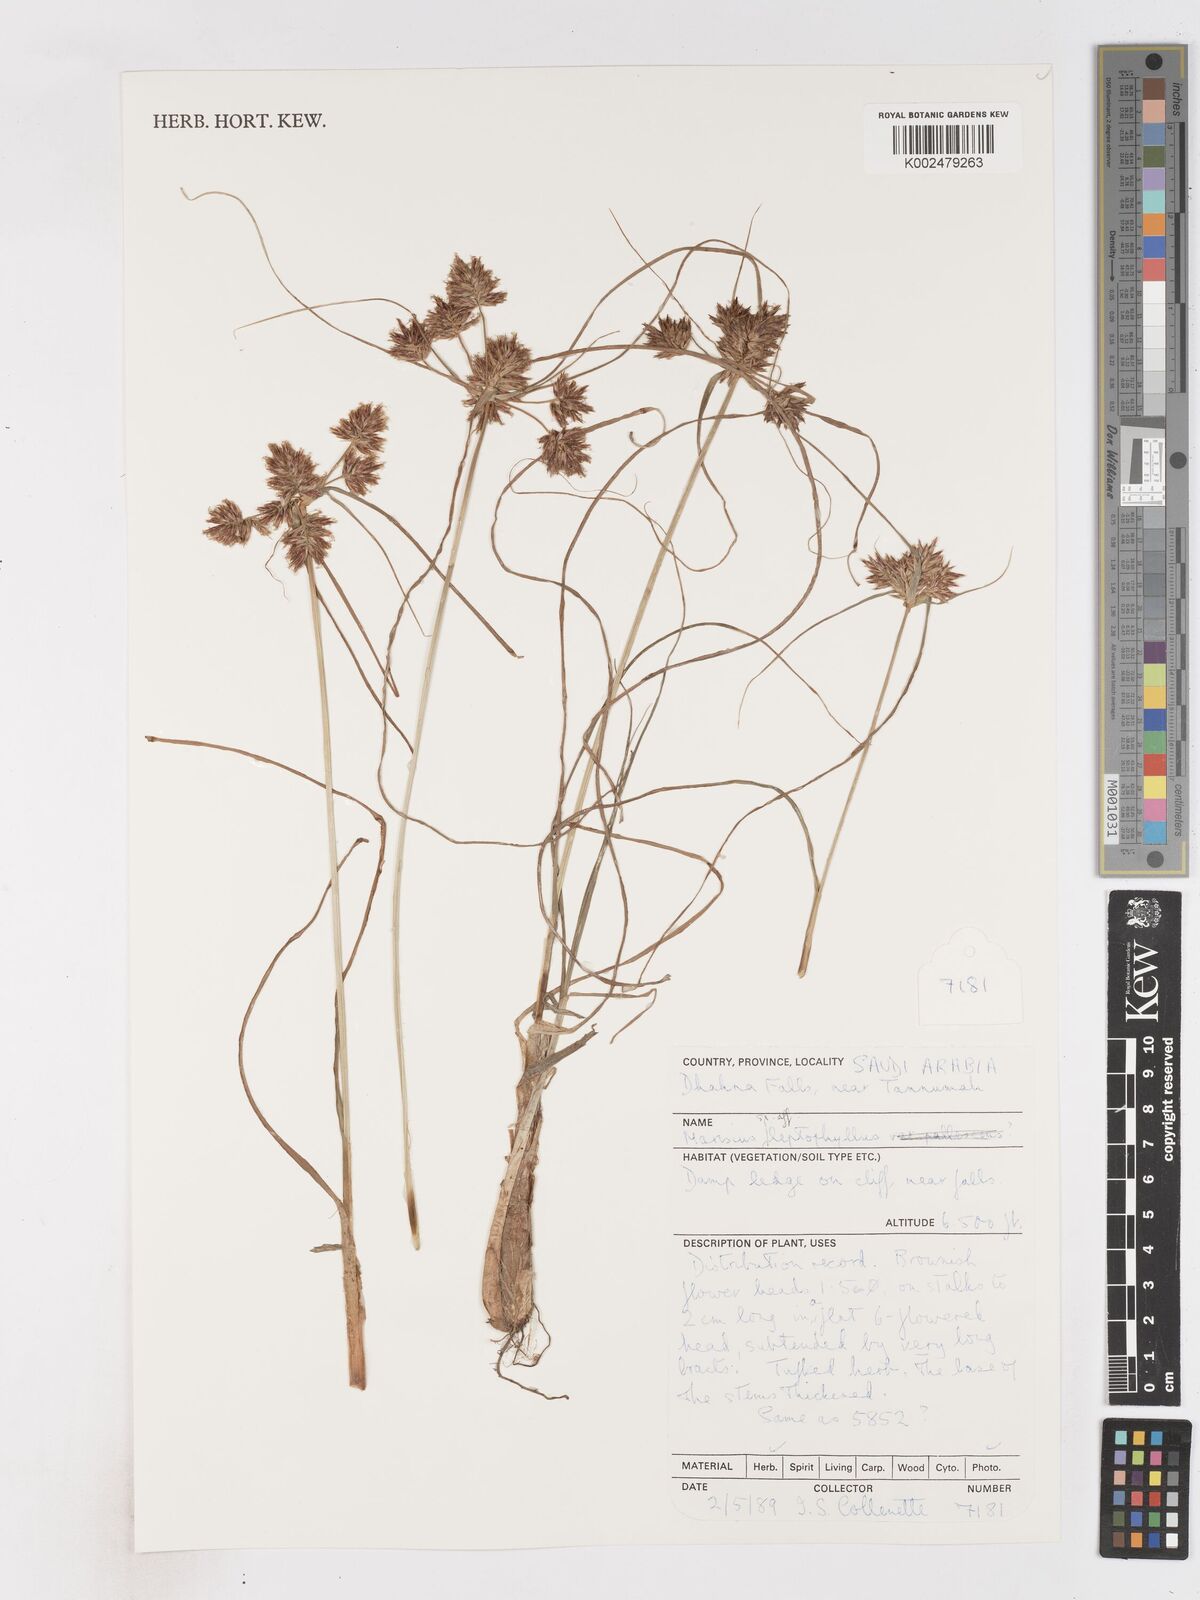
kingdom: Plantae
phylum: Tracheophyta
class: Liliopsida
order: Poales
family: Cyperaceae
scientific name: Cyperaceae
